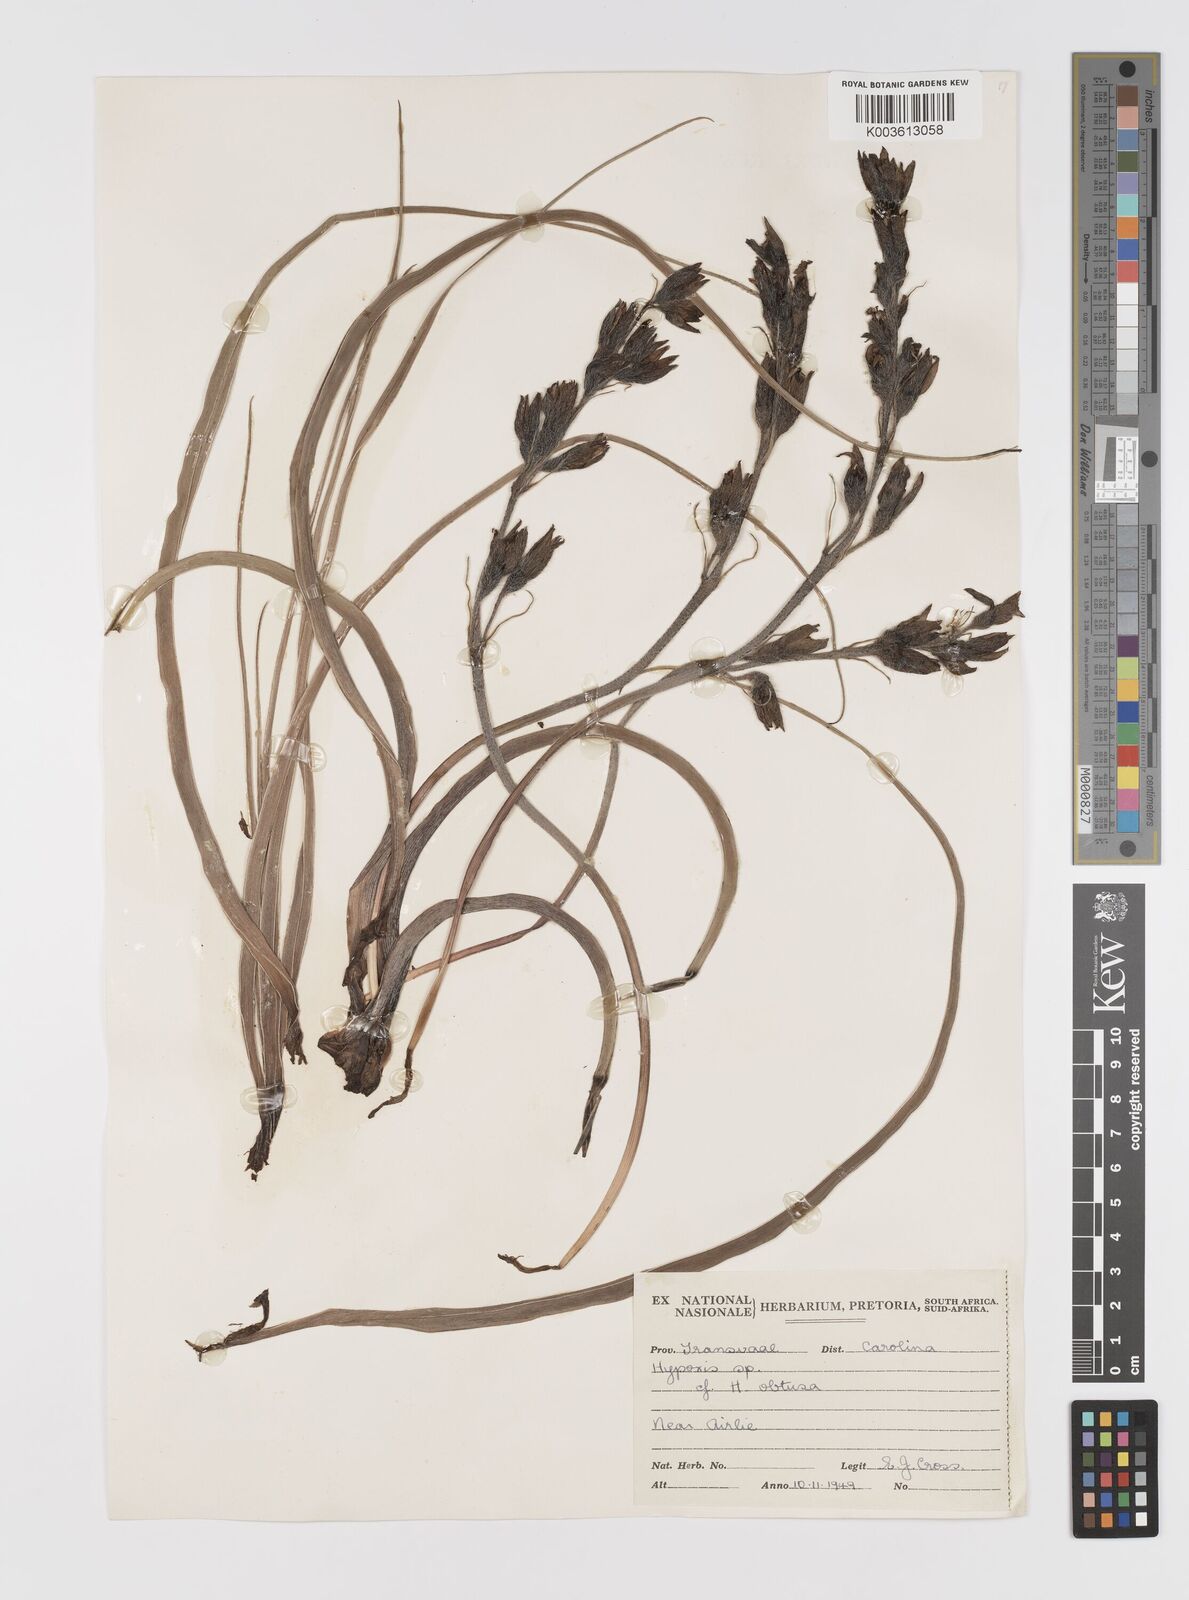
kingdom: Plantae
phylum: Tracheophyta
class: Liliopsida
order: Asparagales
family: Hypoxidaceae
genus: Hypoxis
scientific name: Hypoxis obtusa
